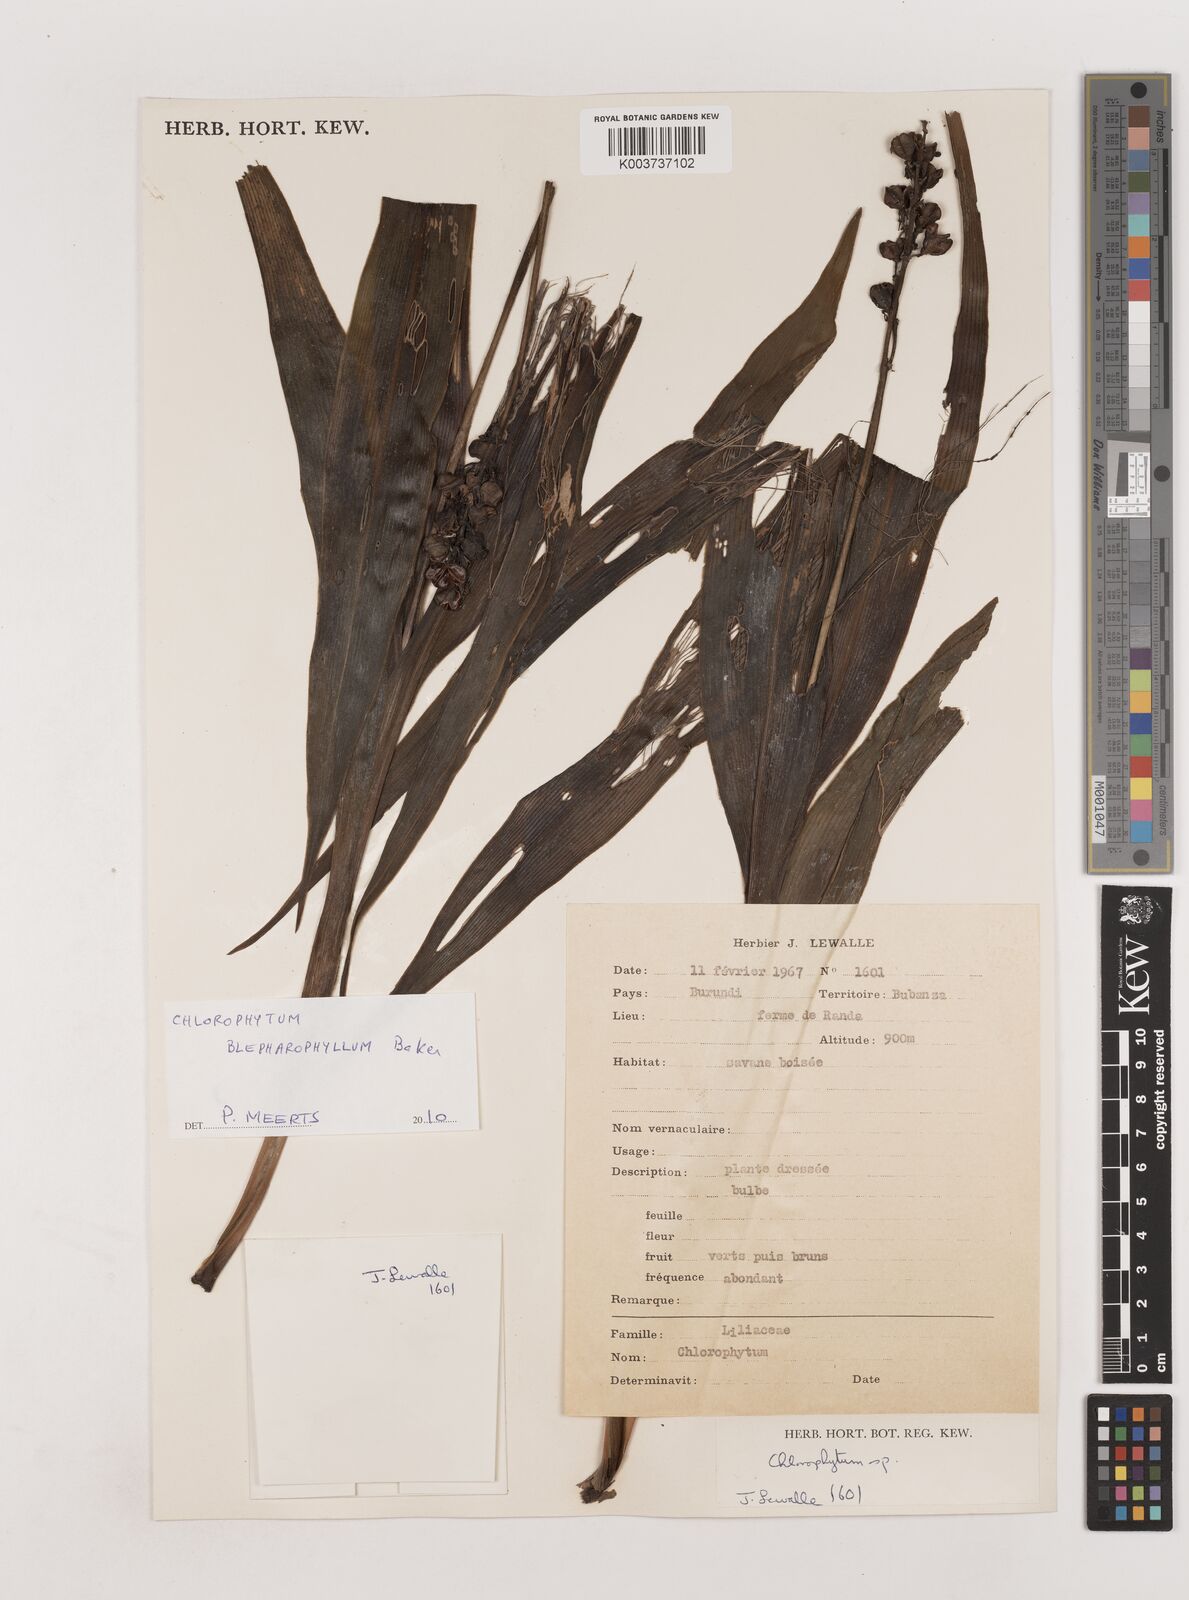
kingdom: Plantae
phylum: Tracheophyta
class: Liliopsida
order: Asparagales
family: Asparagaceae
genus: Chlorophytum
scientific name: Chlorophytum blepharophyllum
